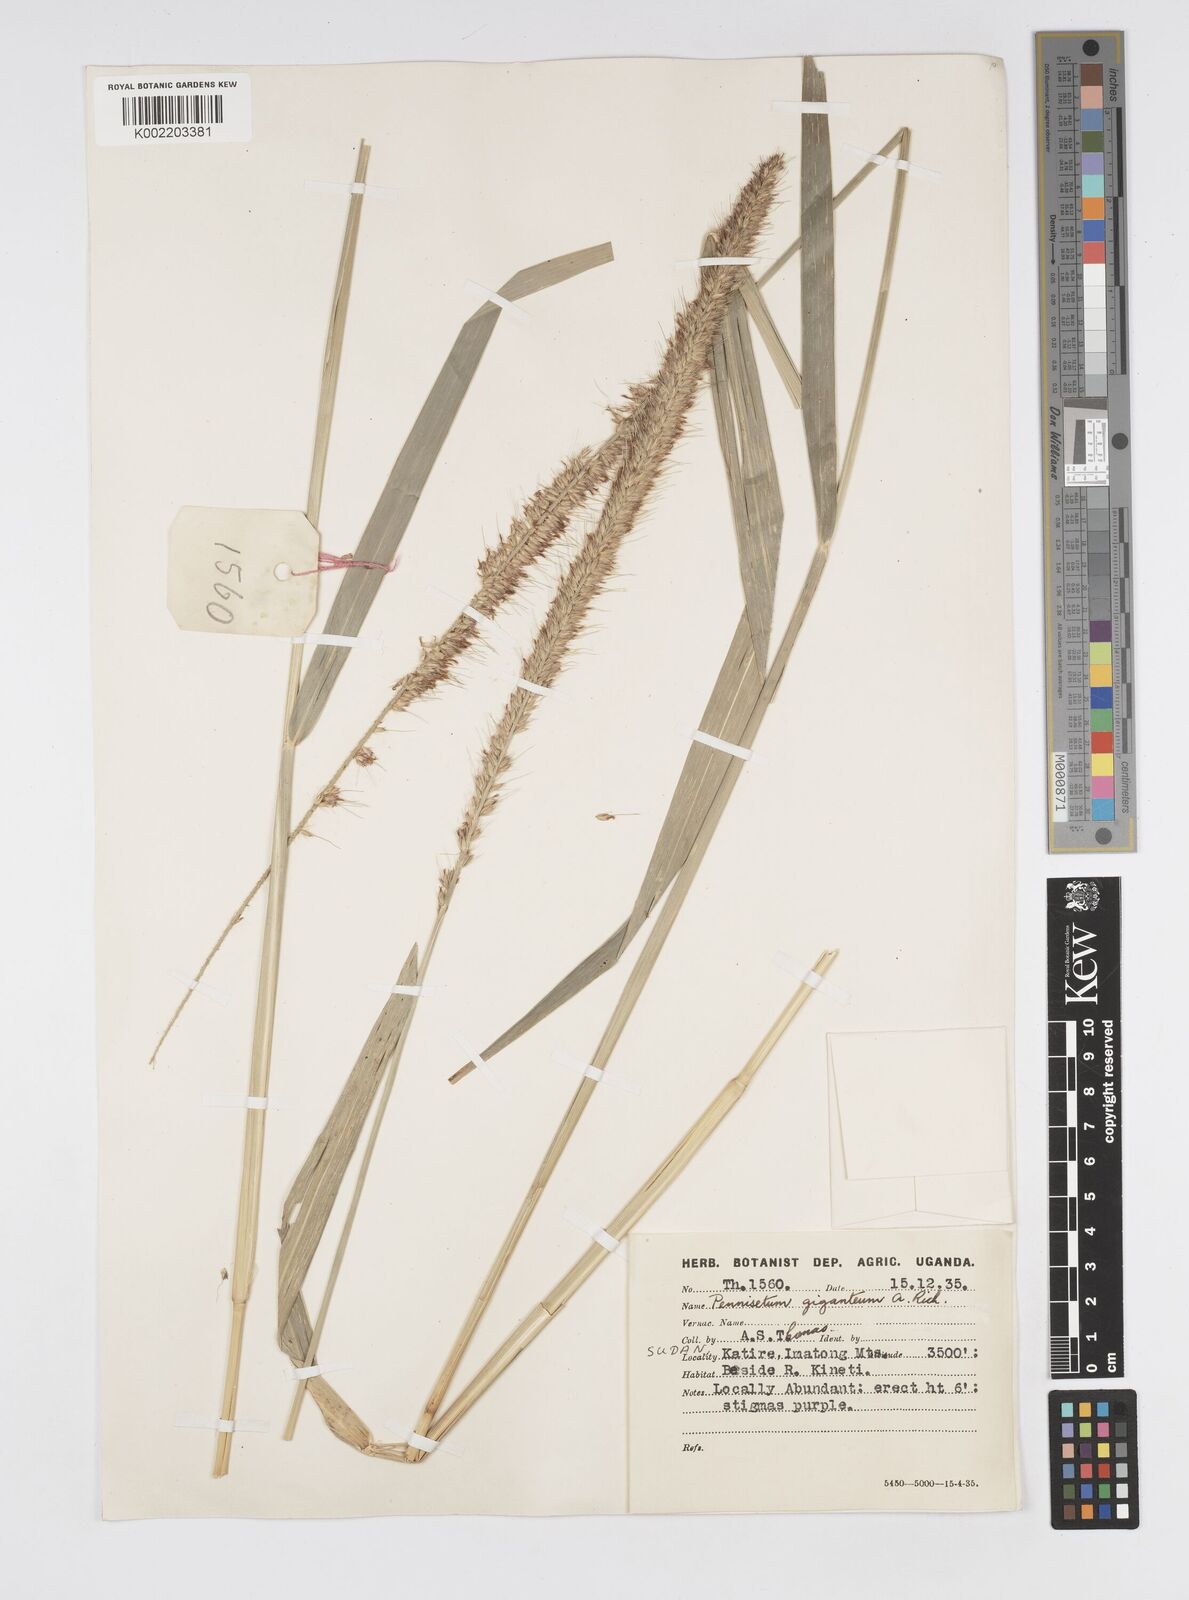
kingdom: Plantae
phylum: Tracheophyta
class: Liliopsida
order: Poales
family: Poaceae
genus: Cenchrus
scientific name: Cenchrus caudatus
